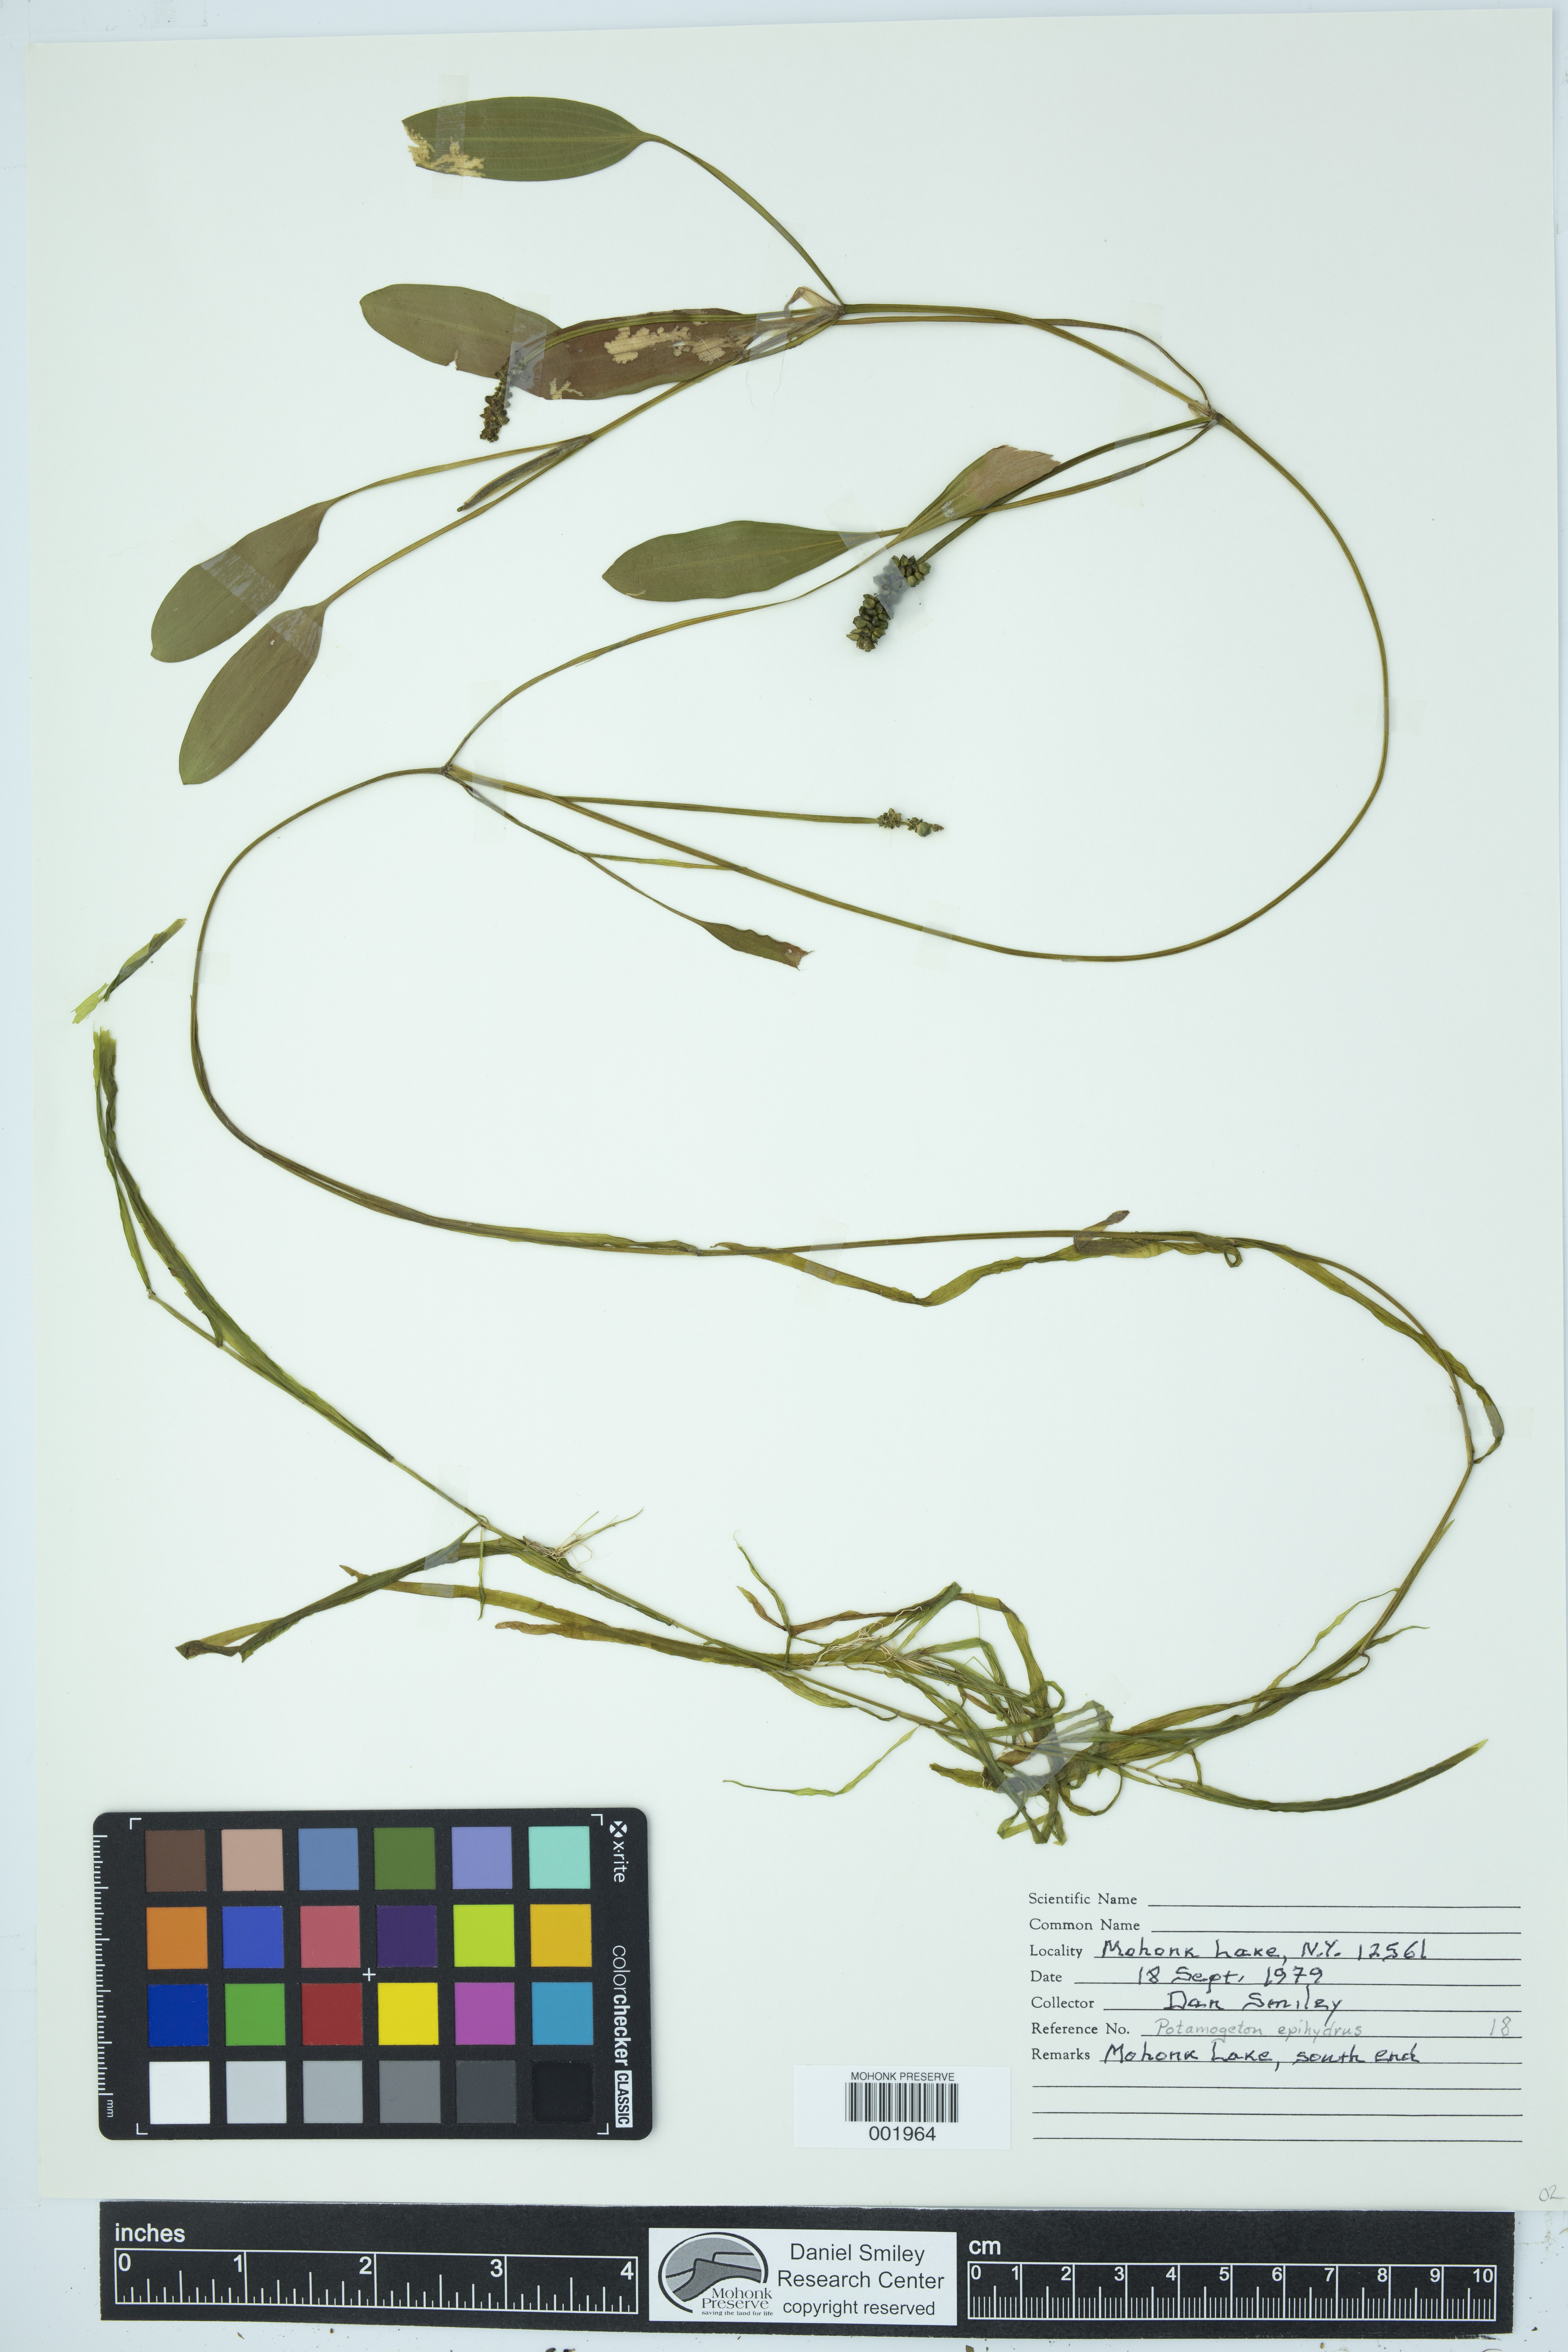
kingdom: Plantae
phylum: Tracheophyta
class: Liliopsida
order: Alismatales
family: Potamogetonaceae
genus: Potamogeton
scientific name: Potamogeton epihydrus
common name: American pondweed
